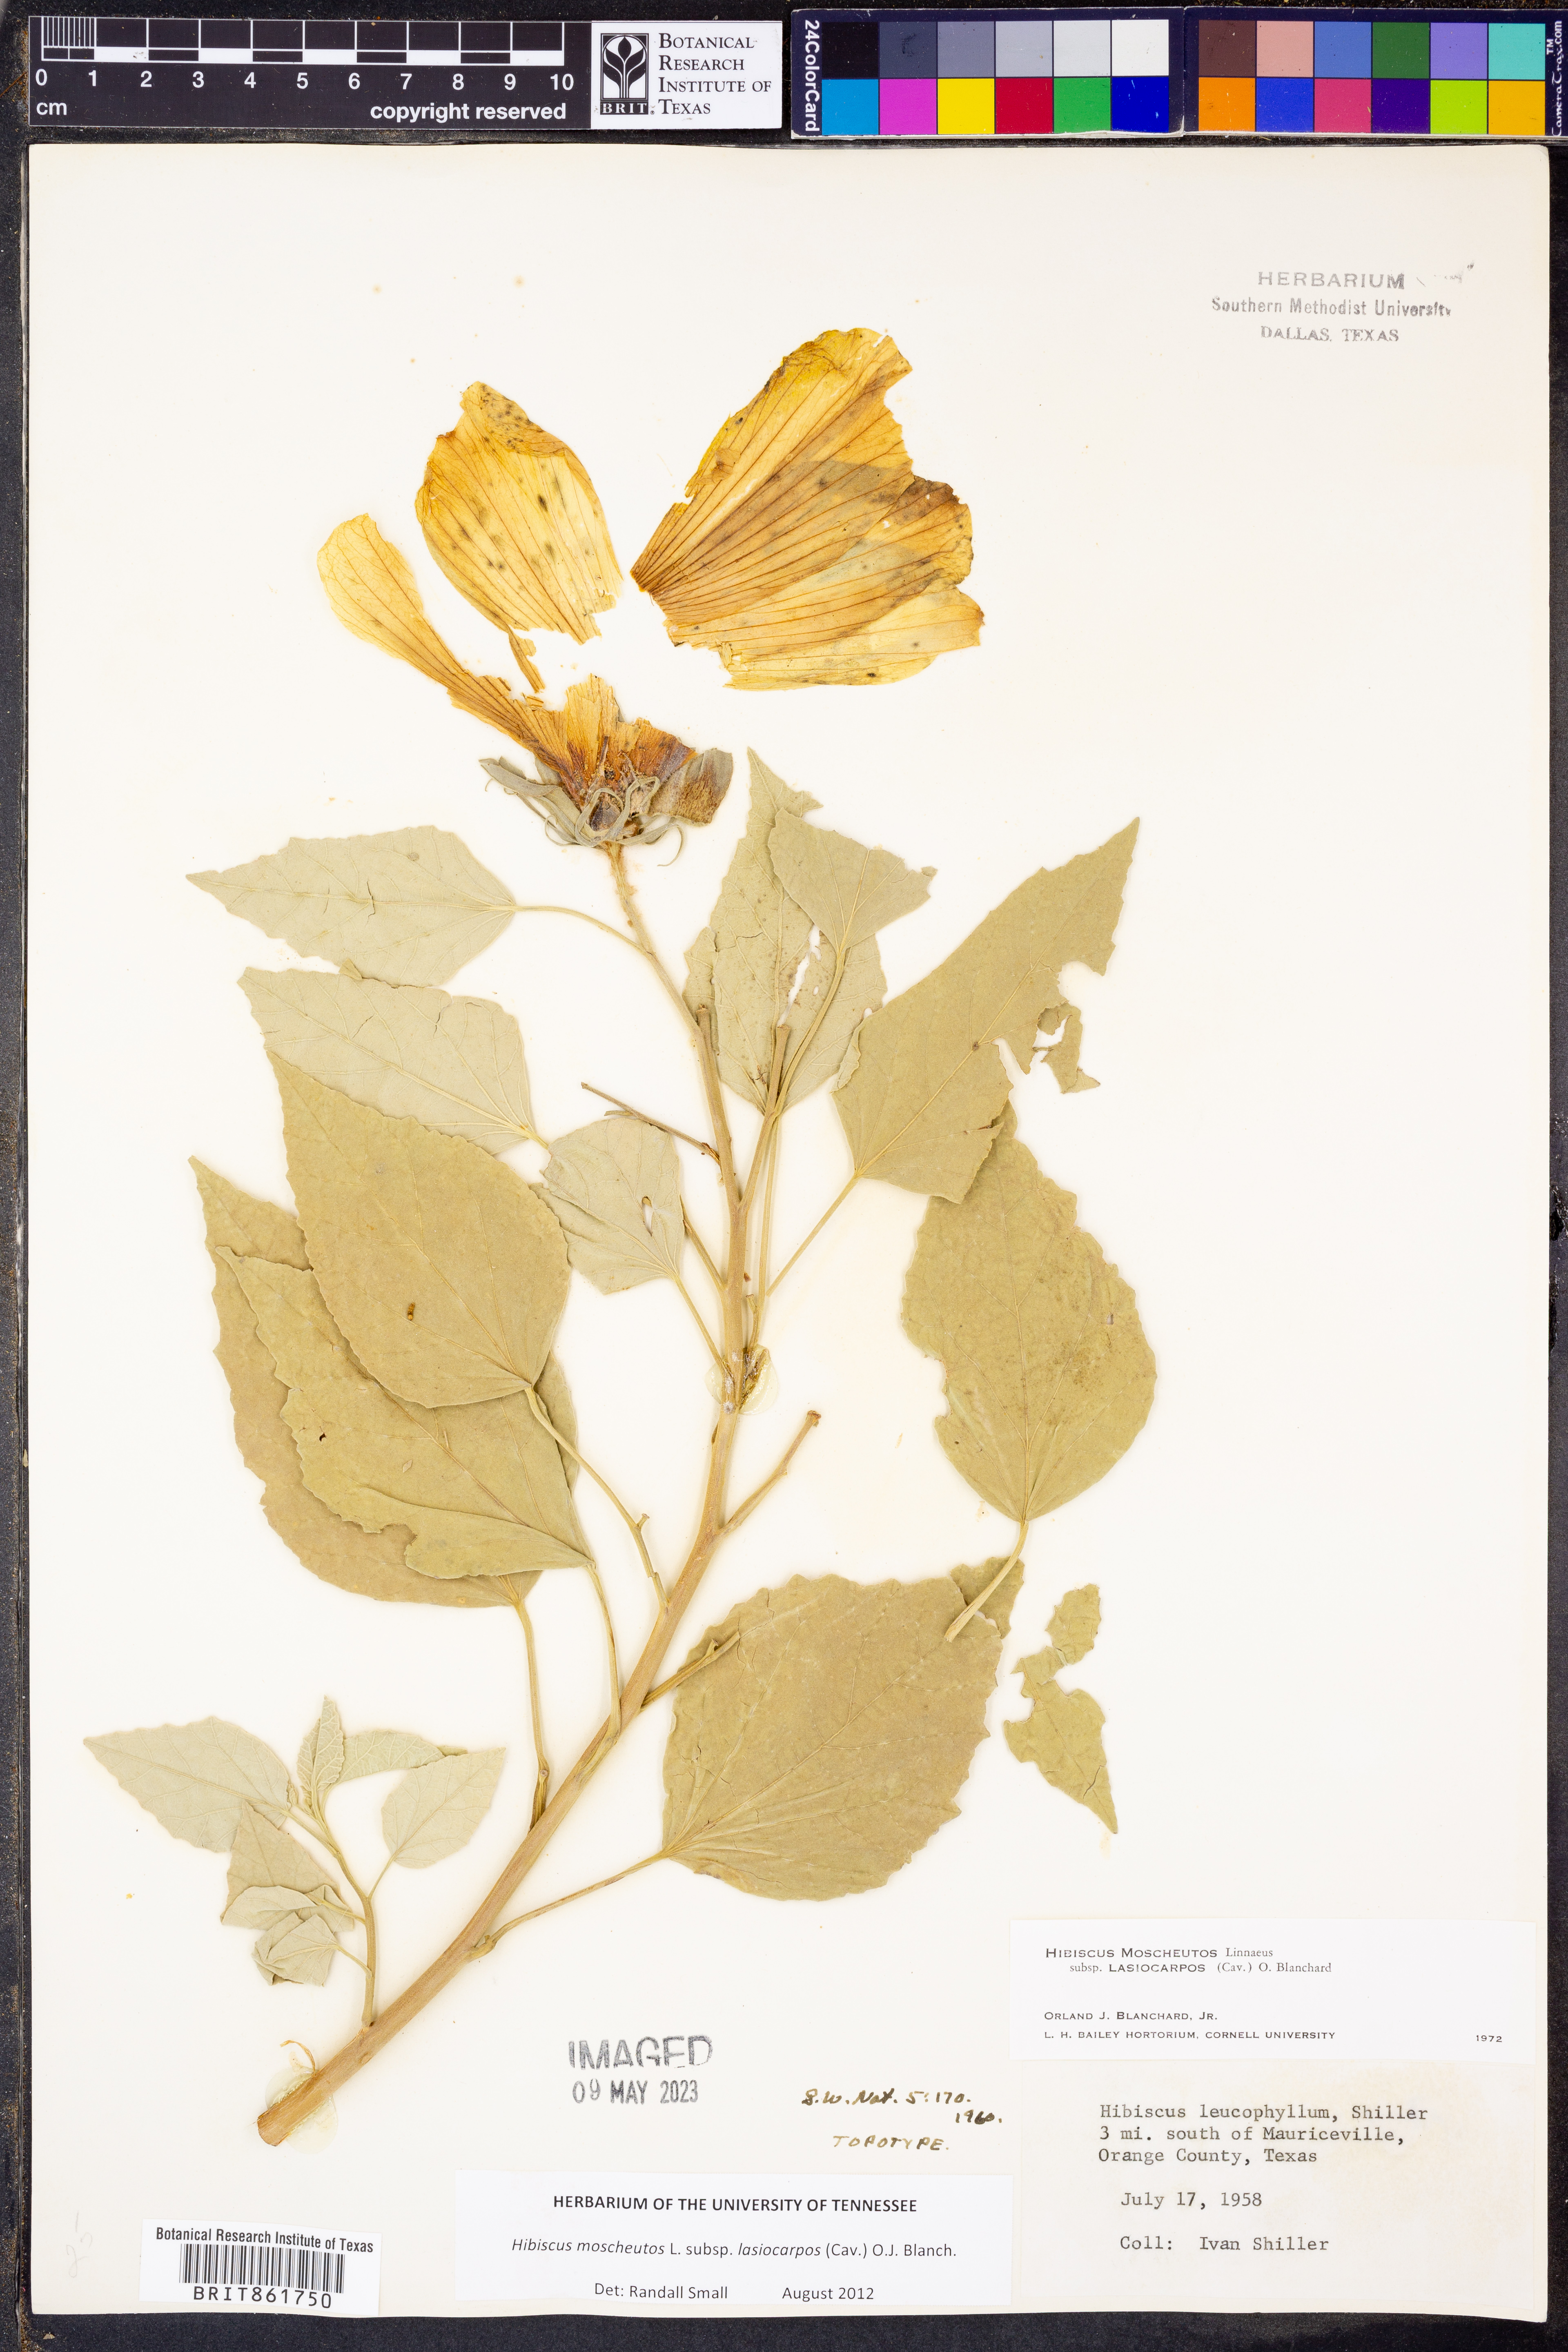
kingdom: Plantae
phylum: Tracheophyta
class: Magnoliopsida
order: Malvales
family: Malvaceae
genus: Hibiscus
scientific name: Hibiscus moscheutos
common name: Common rose-mallow
